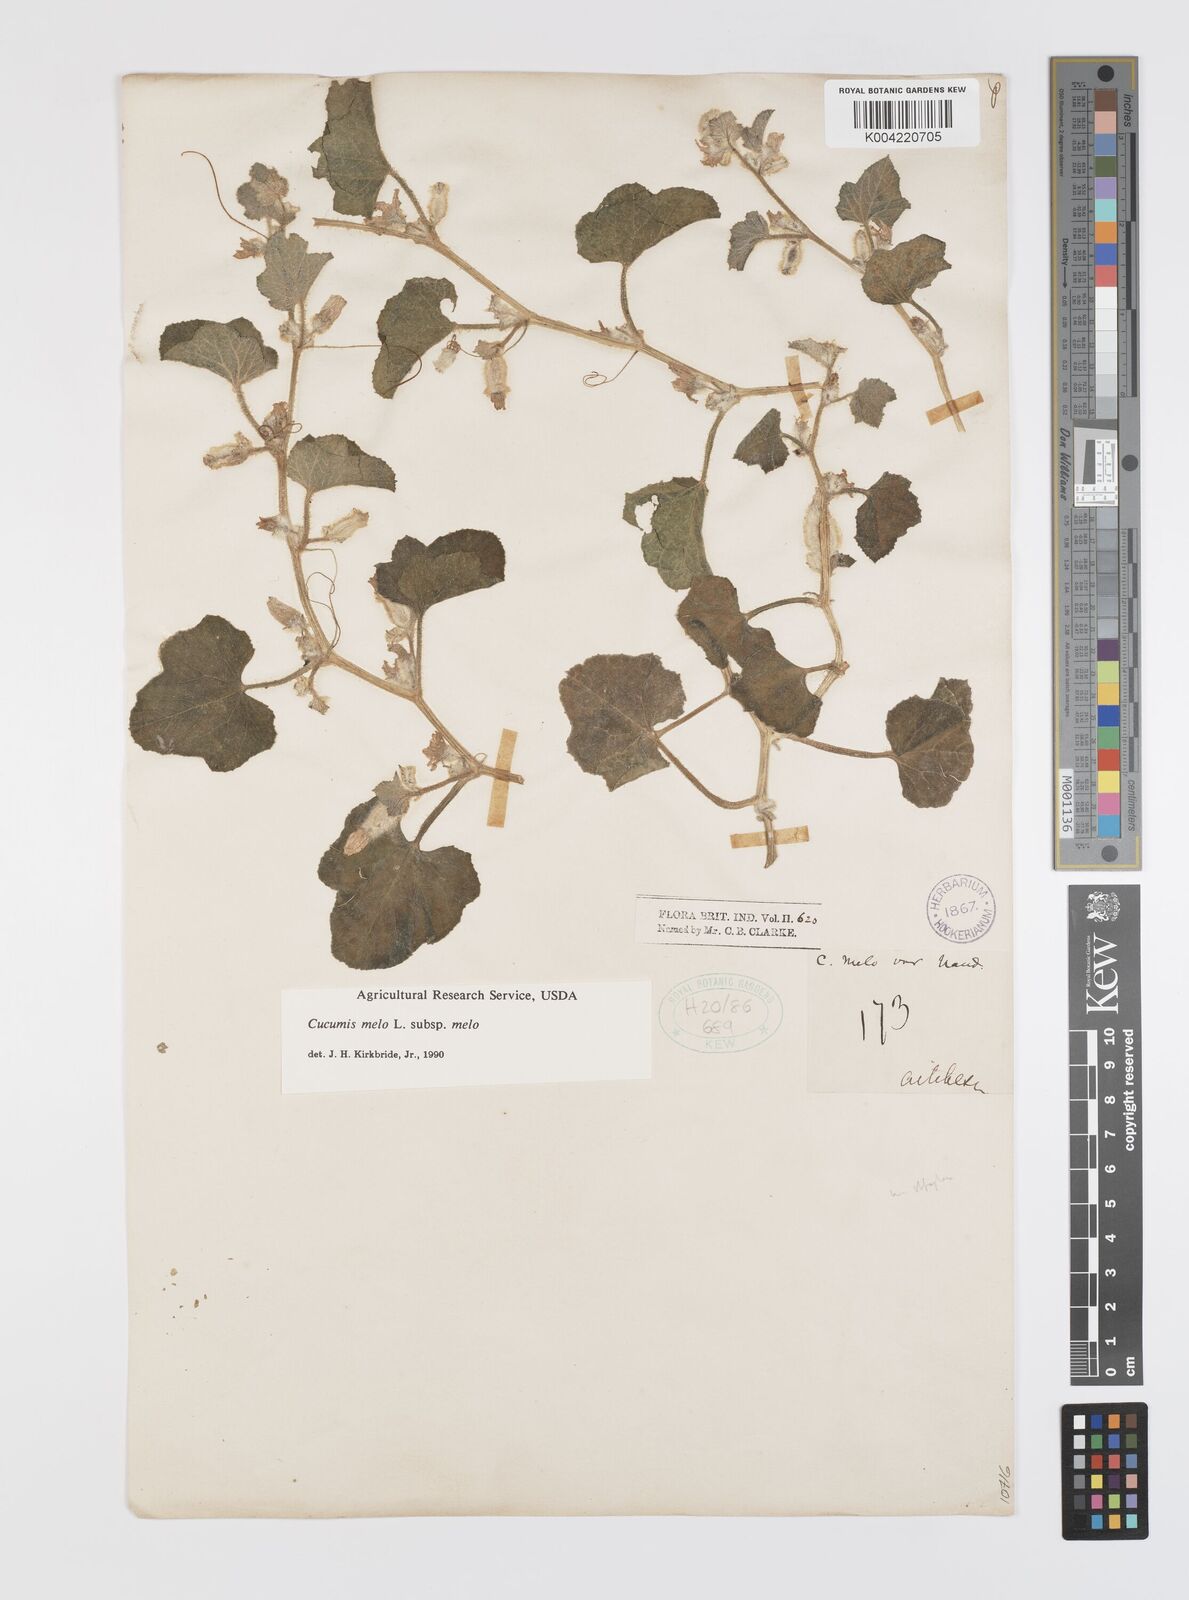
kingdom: Plantae
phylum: Tracheophyta
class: Magnoliopsida
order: Cucurbitales
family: Cucurbitaceae
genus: Cucumis
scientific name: Cucumis melo
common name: Melon
